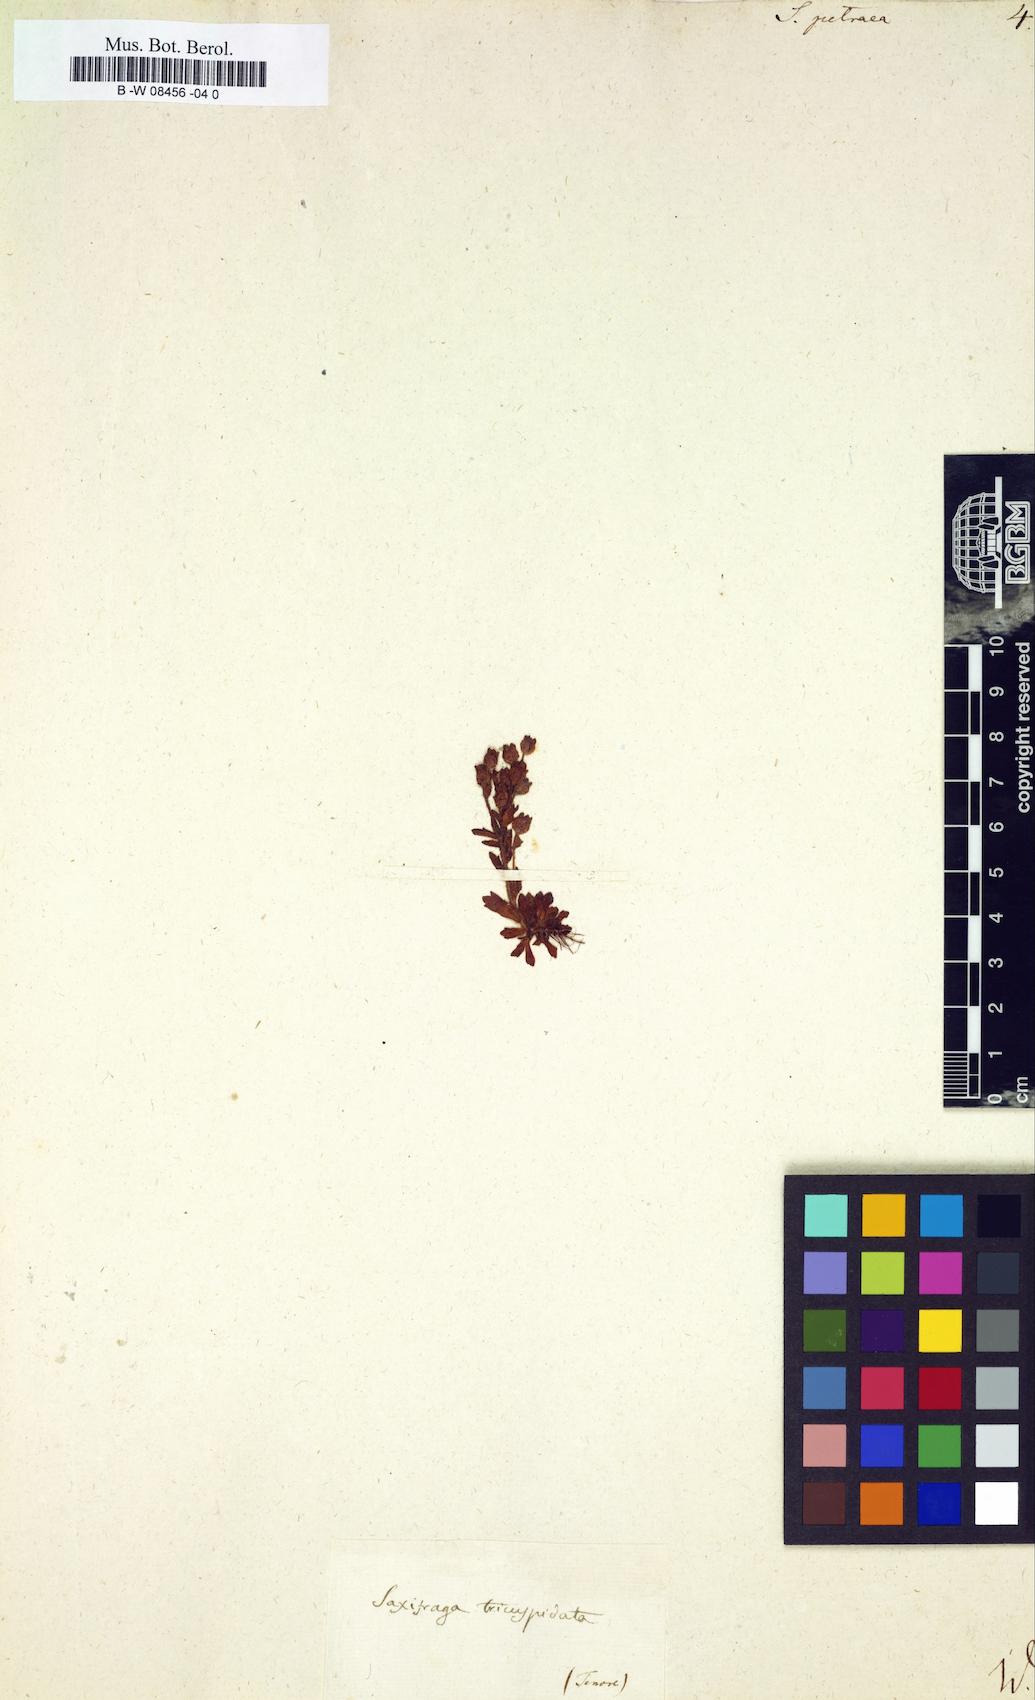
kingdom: Plantae
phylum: Tracheophyta
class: Magnoliopsida
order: Saxifragales
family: Saxifragaceae
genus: Saxifraga
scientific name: Saxifraga petraea
